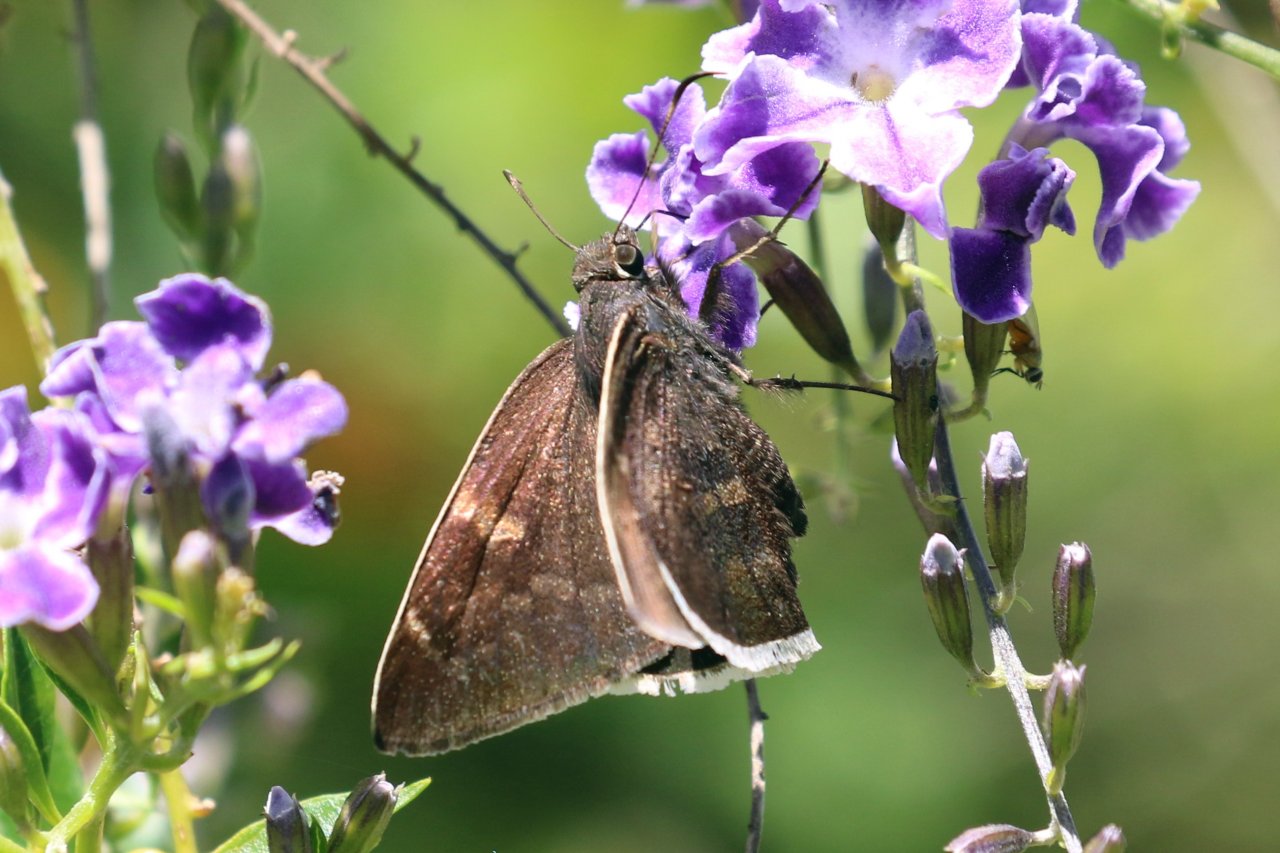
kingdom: Animalia
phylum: Arthropoda
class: Insecta
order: Lepidoptera
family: Hesperiidae
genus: Achalarus
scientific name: Achalarus toxeus
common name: Coyote Cloudywing
